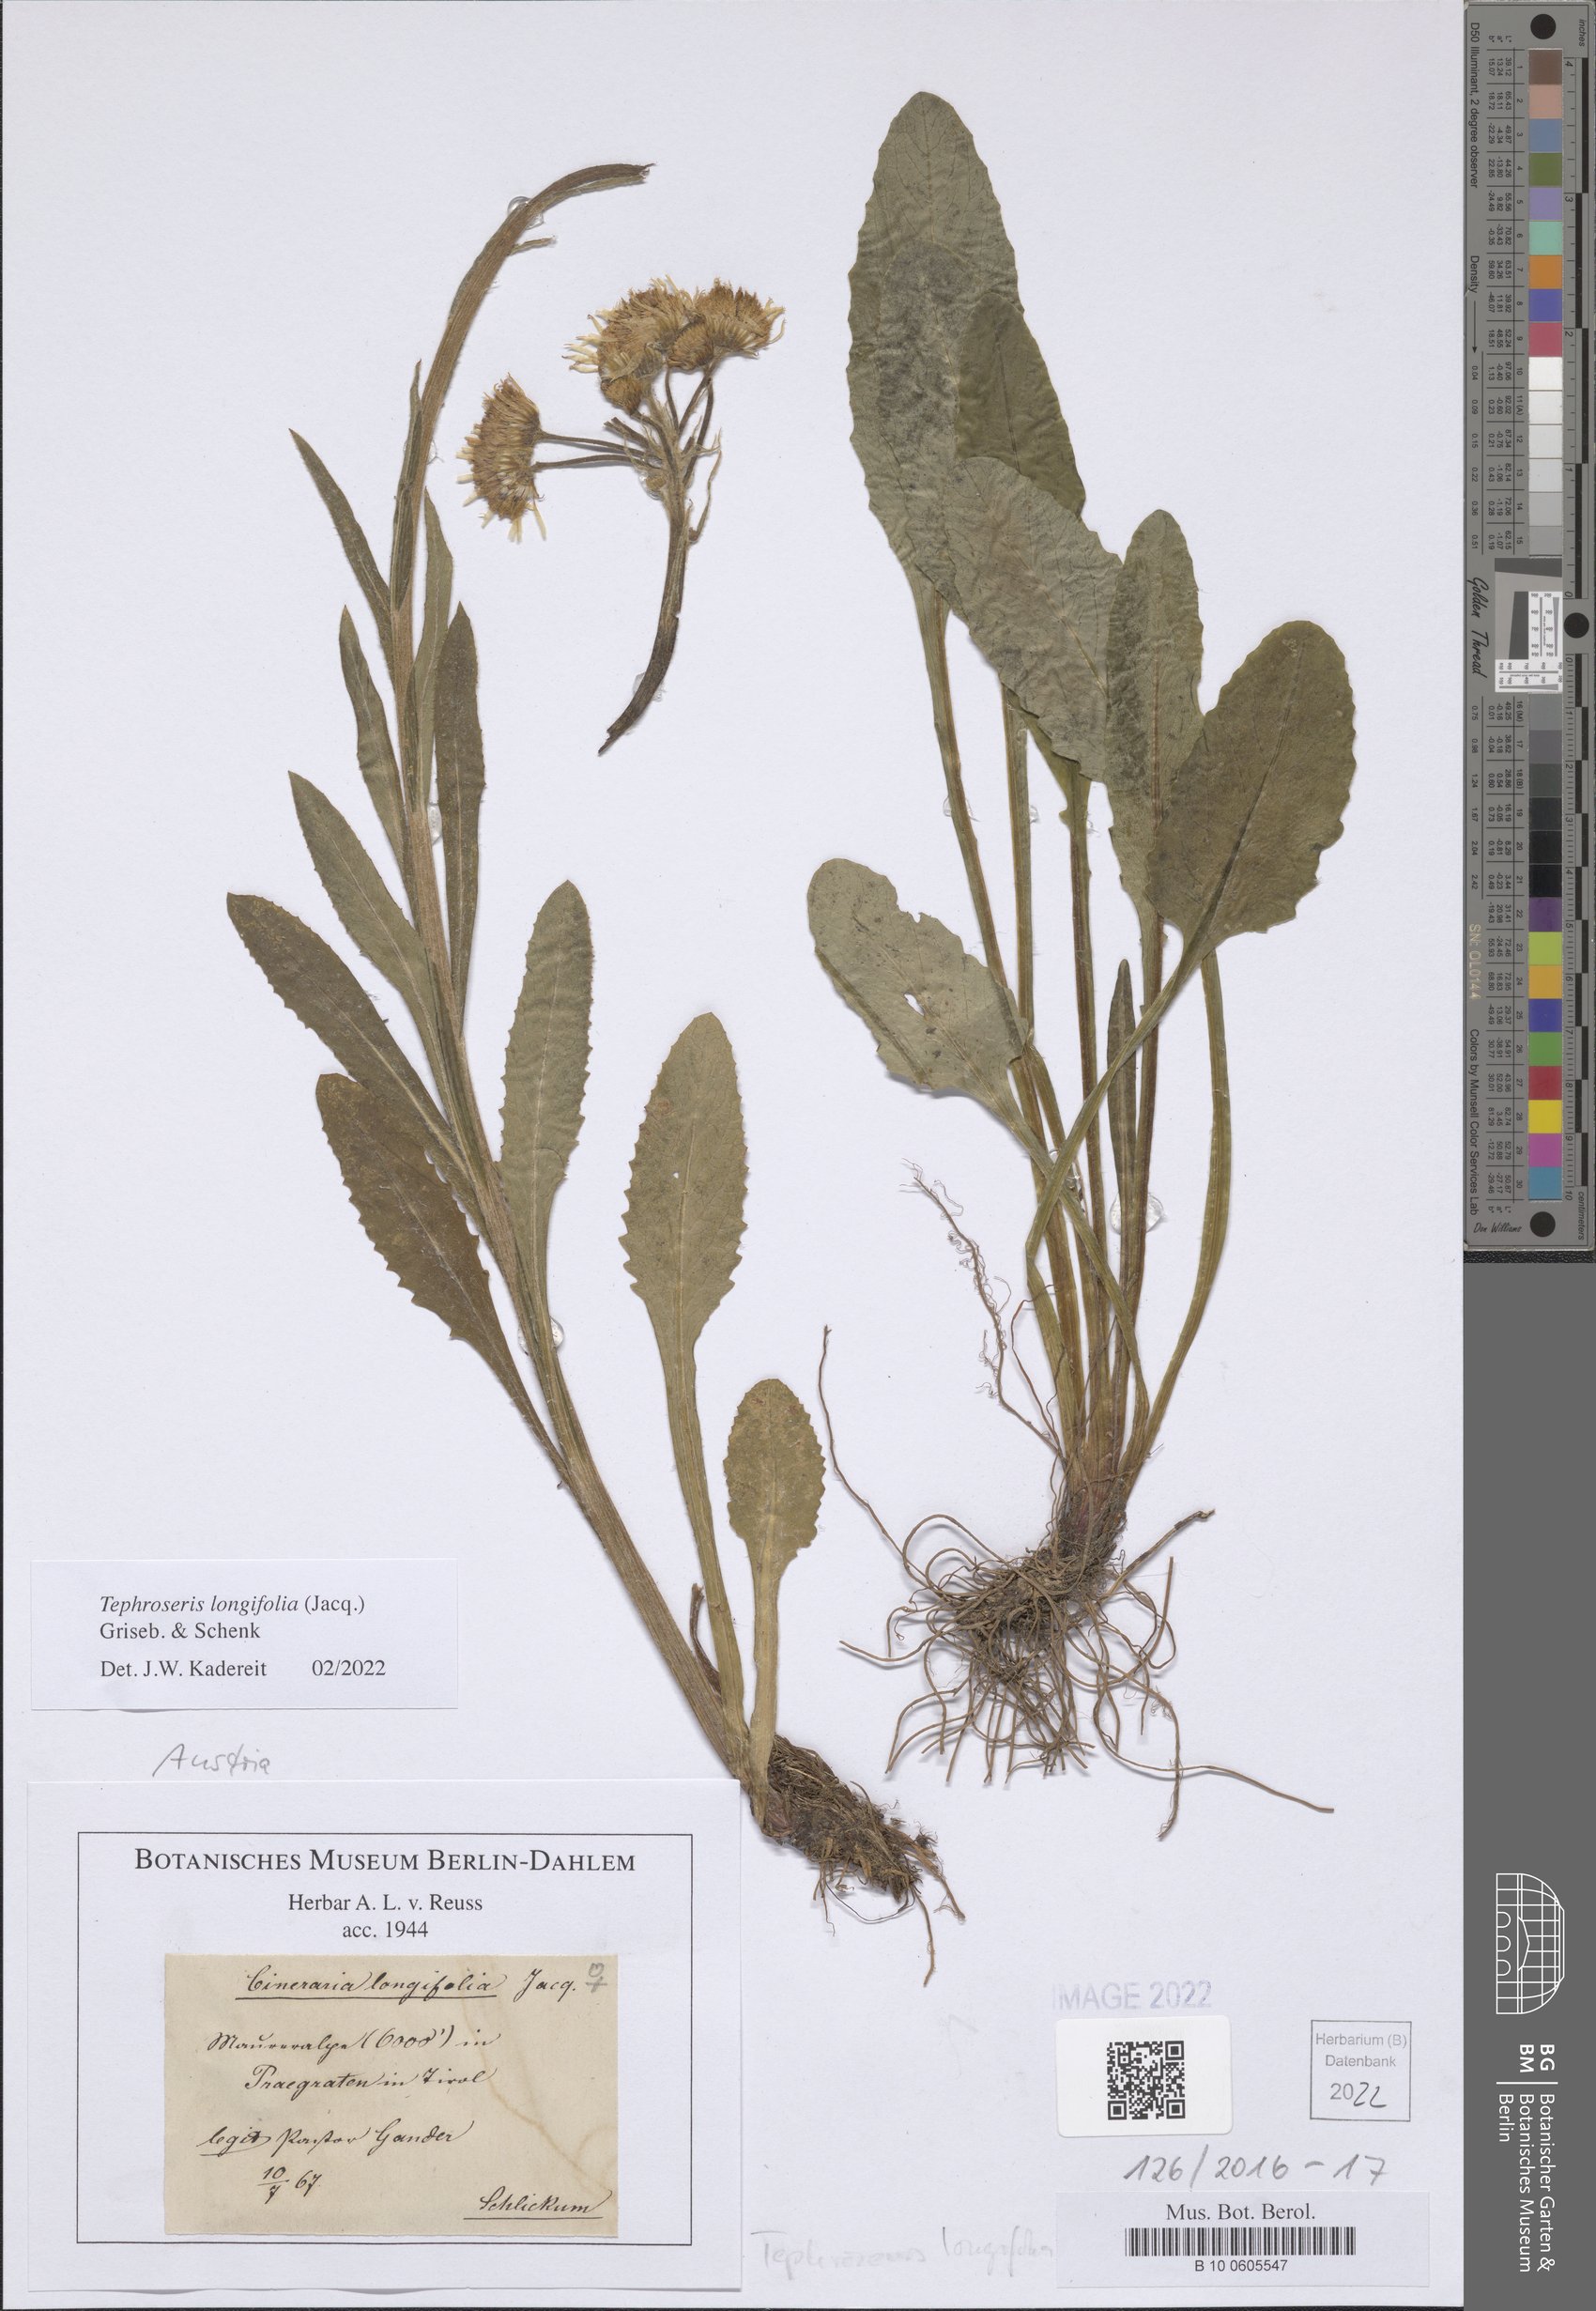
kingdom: Plantae
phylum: Tracheophyta
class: Magnoliopsida
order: Asterales
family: Asteraceae
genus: Tephroseris
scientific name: Tephroseris longifolia
